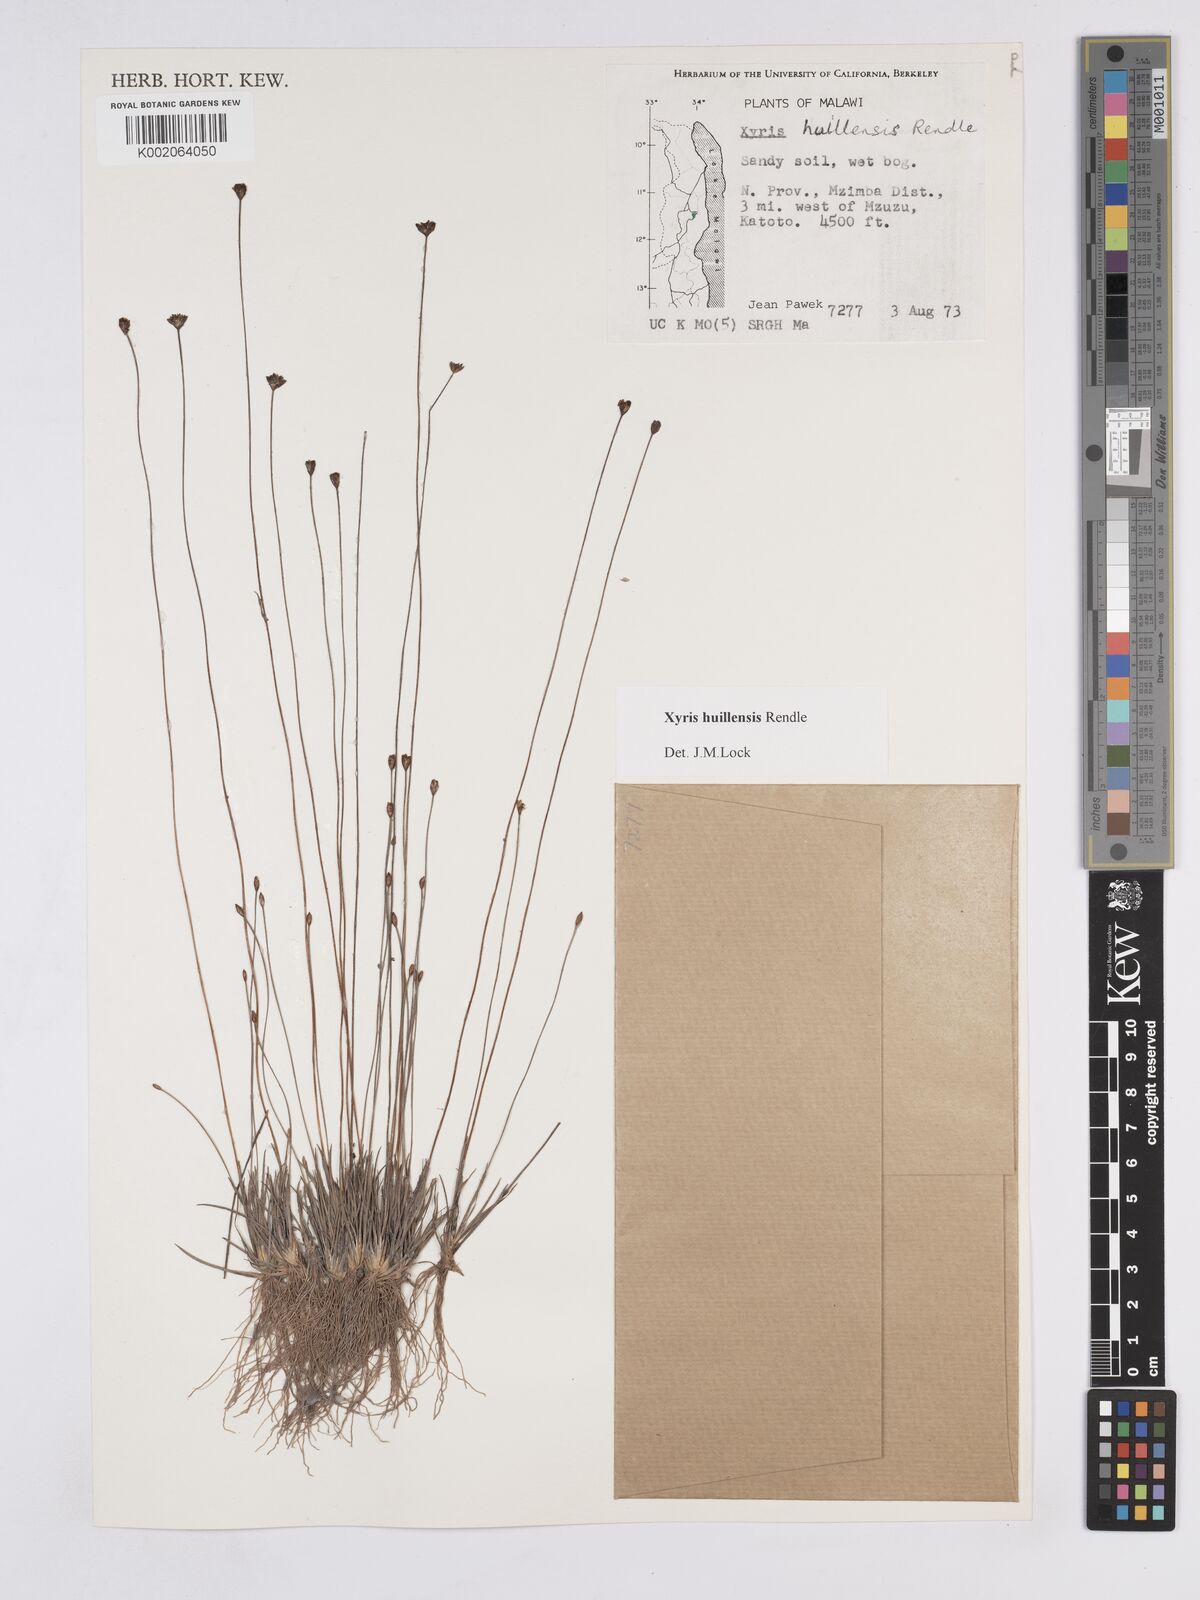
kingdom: Plantae
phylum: Tracheophyta
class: Liliopsida
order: Poales
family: Xyridaceae
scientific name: Xyridaceae
